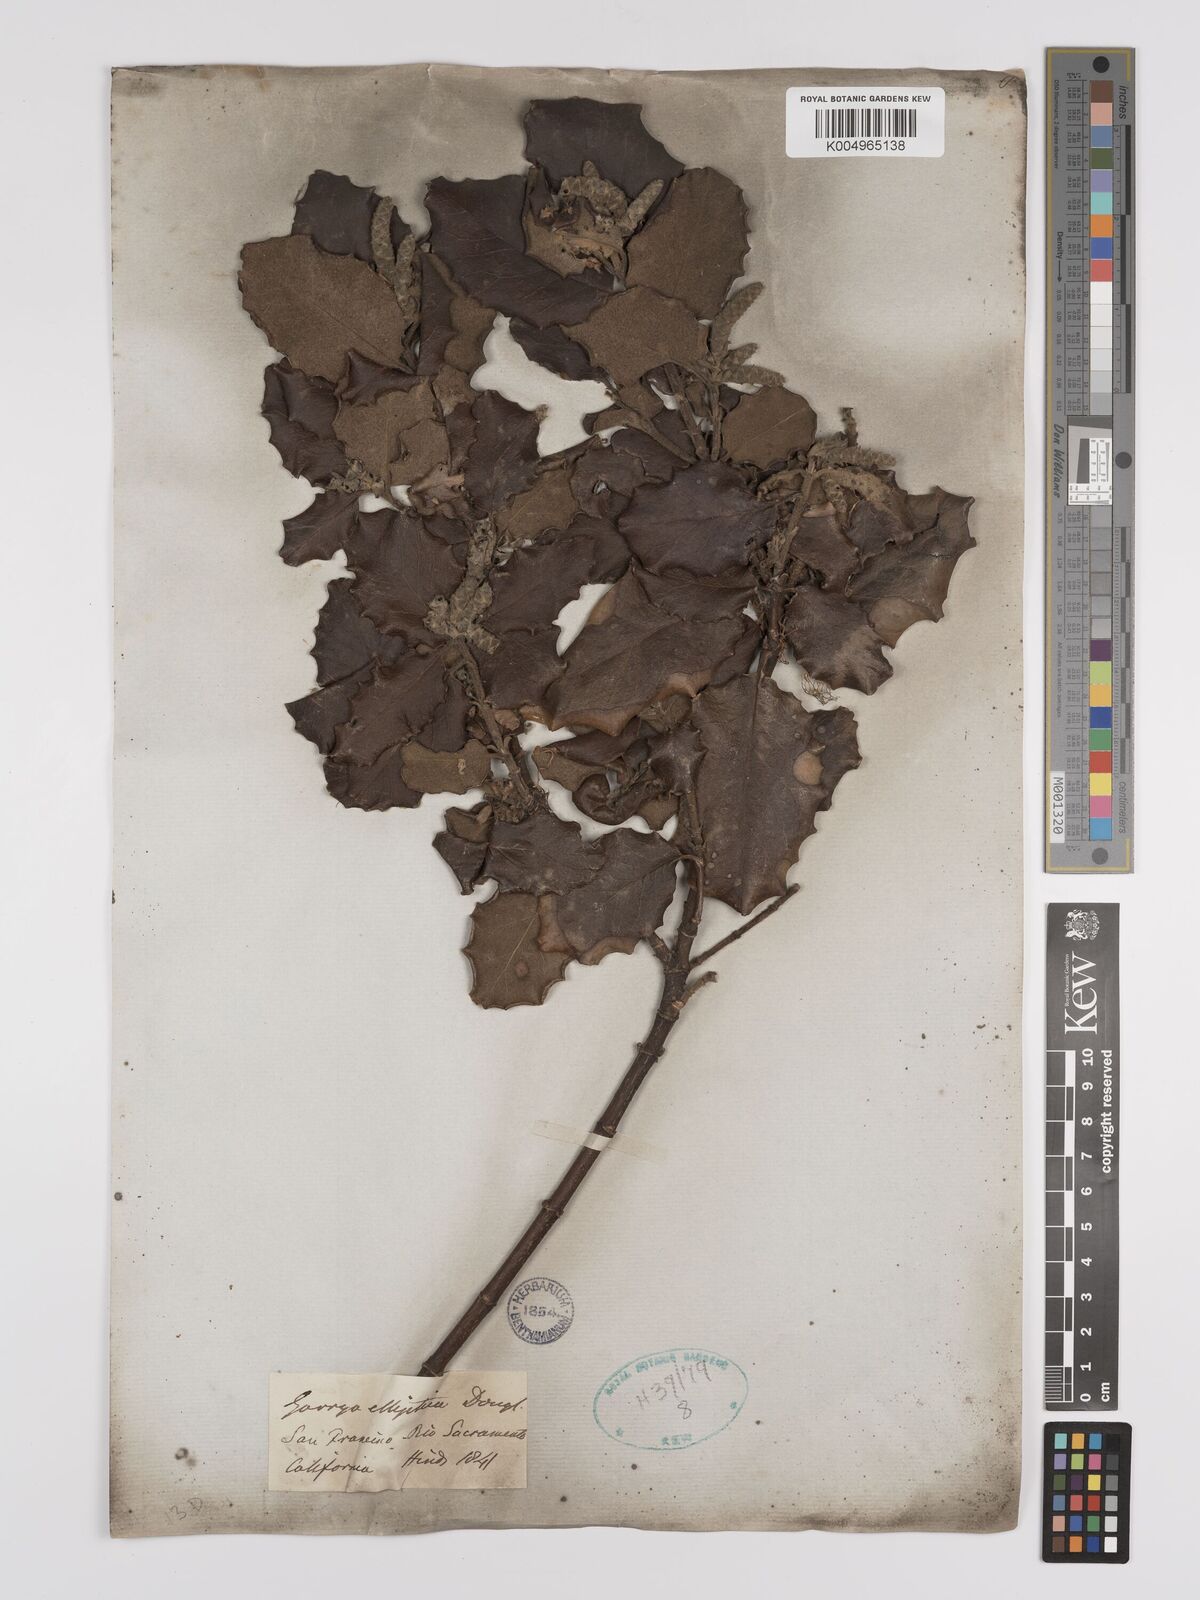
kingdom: Plantae
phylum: Tracheophyta
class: Magnoliopsida
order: Garryales
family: Garryaceae
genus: Garrya
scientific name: Garrya elliptica
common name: Silk-tassel
